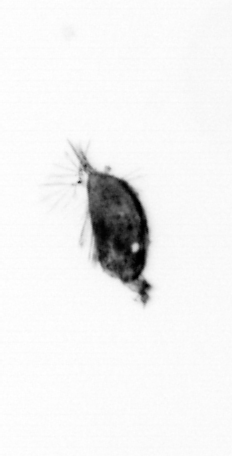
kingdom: Animalia
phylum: Arthropoda
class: Maxillopoda
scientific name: Maxillopoda
